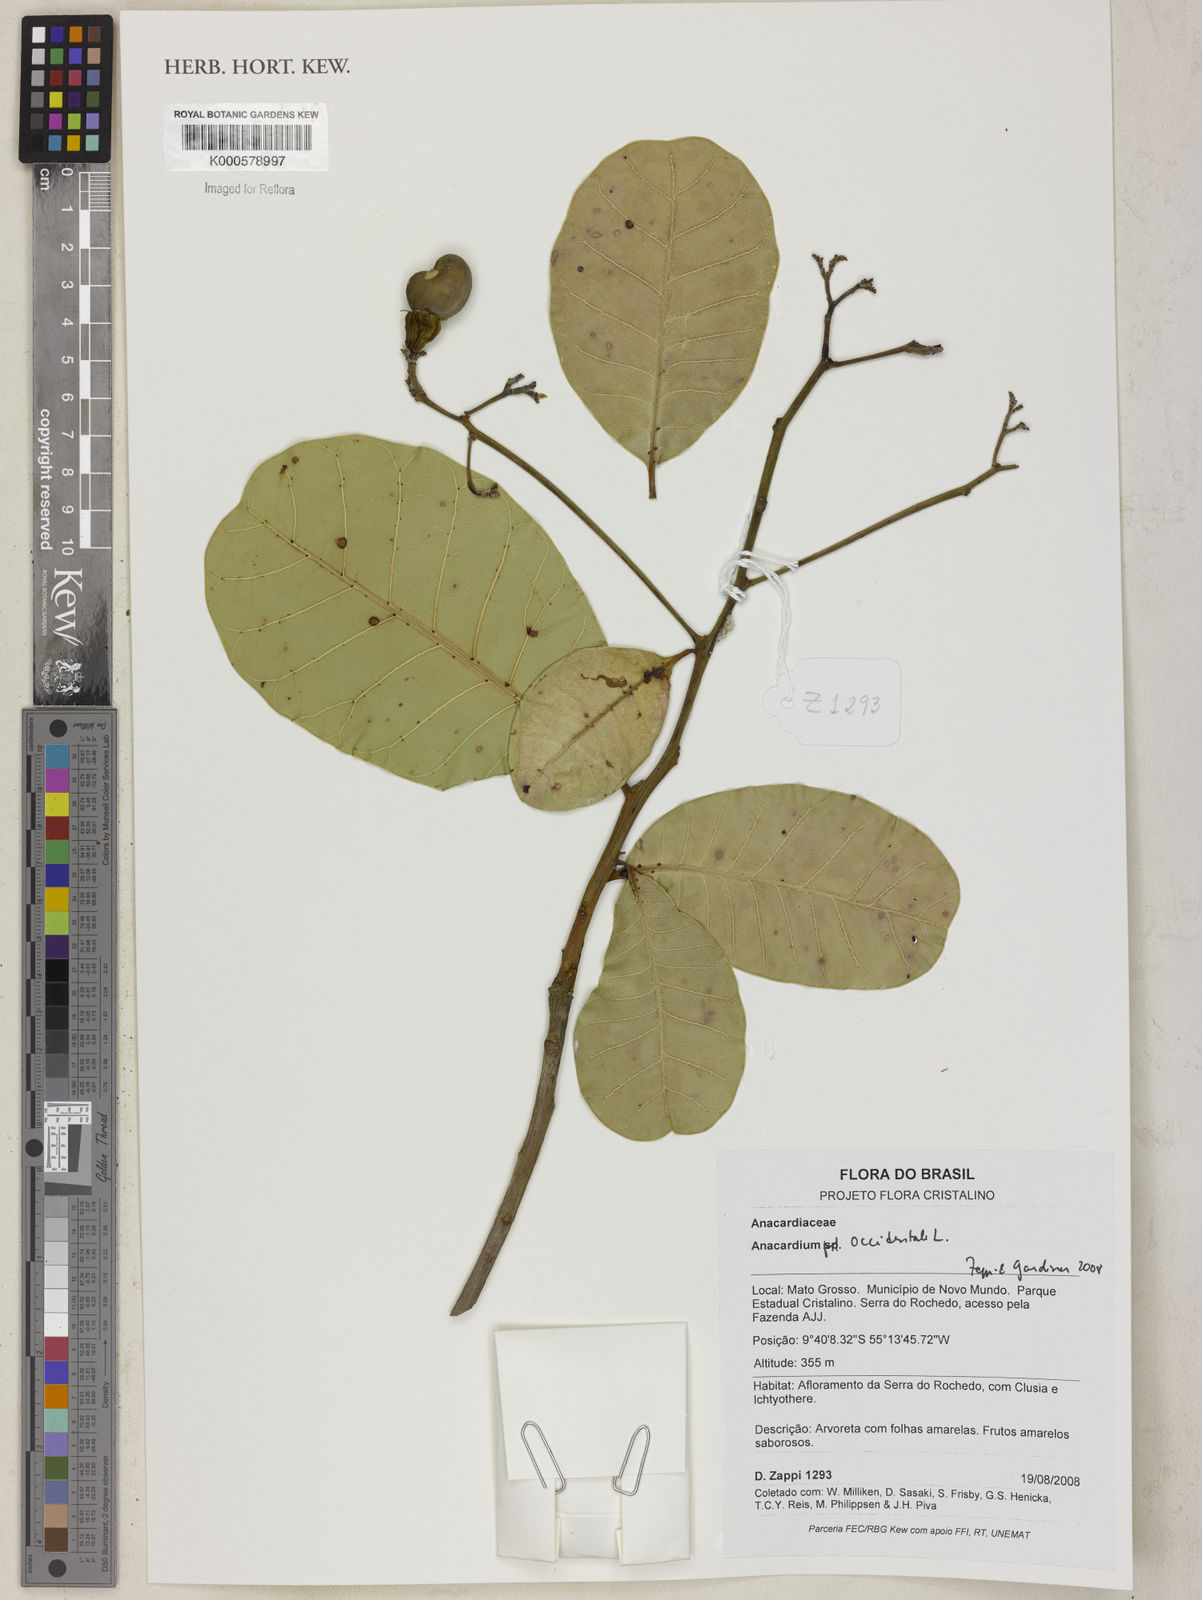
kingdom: Plantae
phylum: Tracheophyta
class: Magnoliopsida
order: Sapindales
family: Anacardiaceae
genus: Anacardium
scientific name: Anacardium occidentale
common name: Cashew
